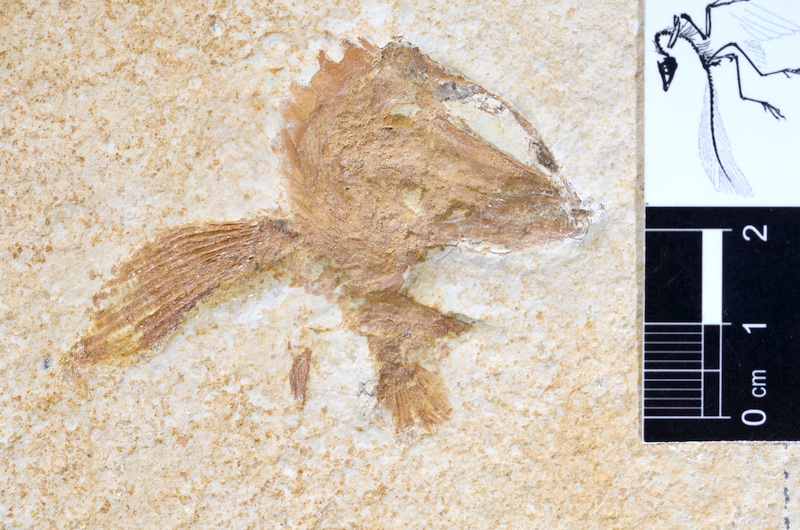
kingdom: Animalia
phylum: Chordata
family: Ophiopsidae
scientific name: Ophiopsidae
